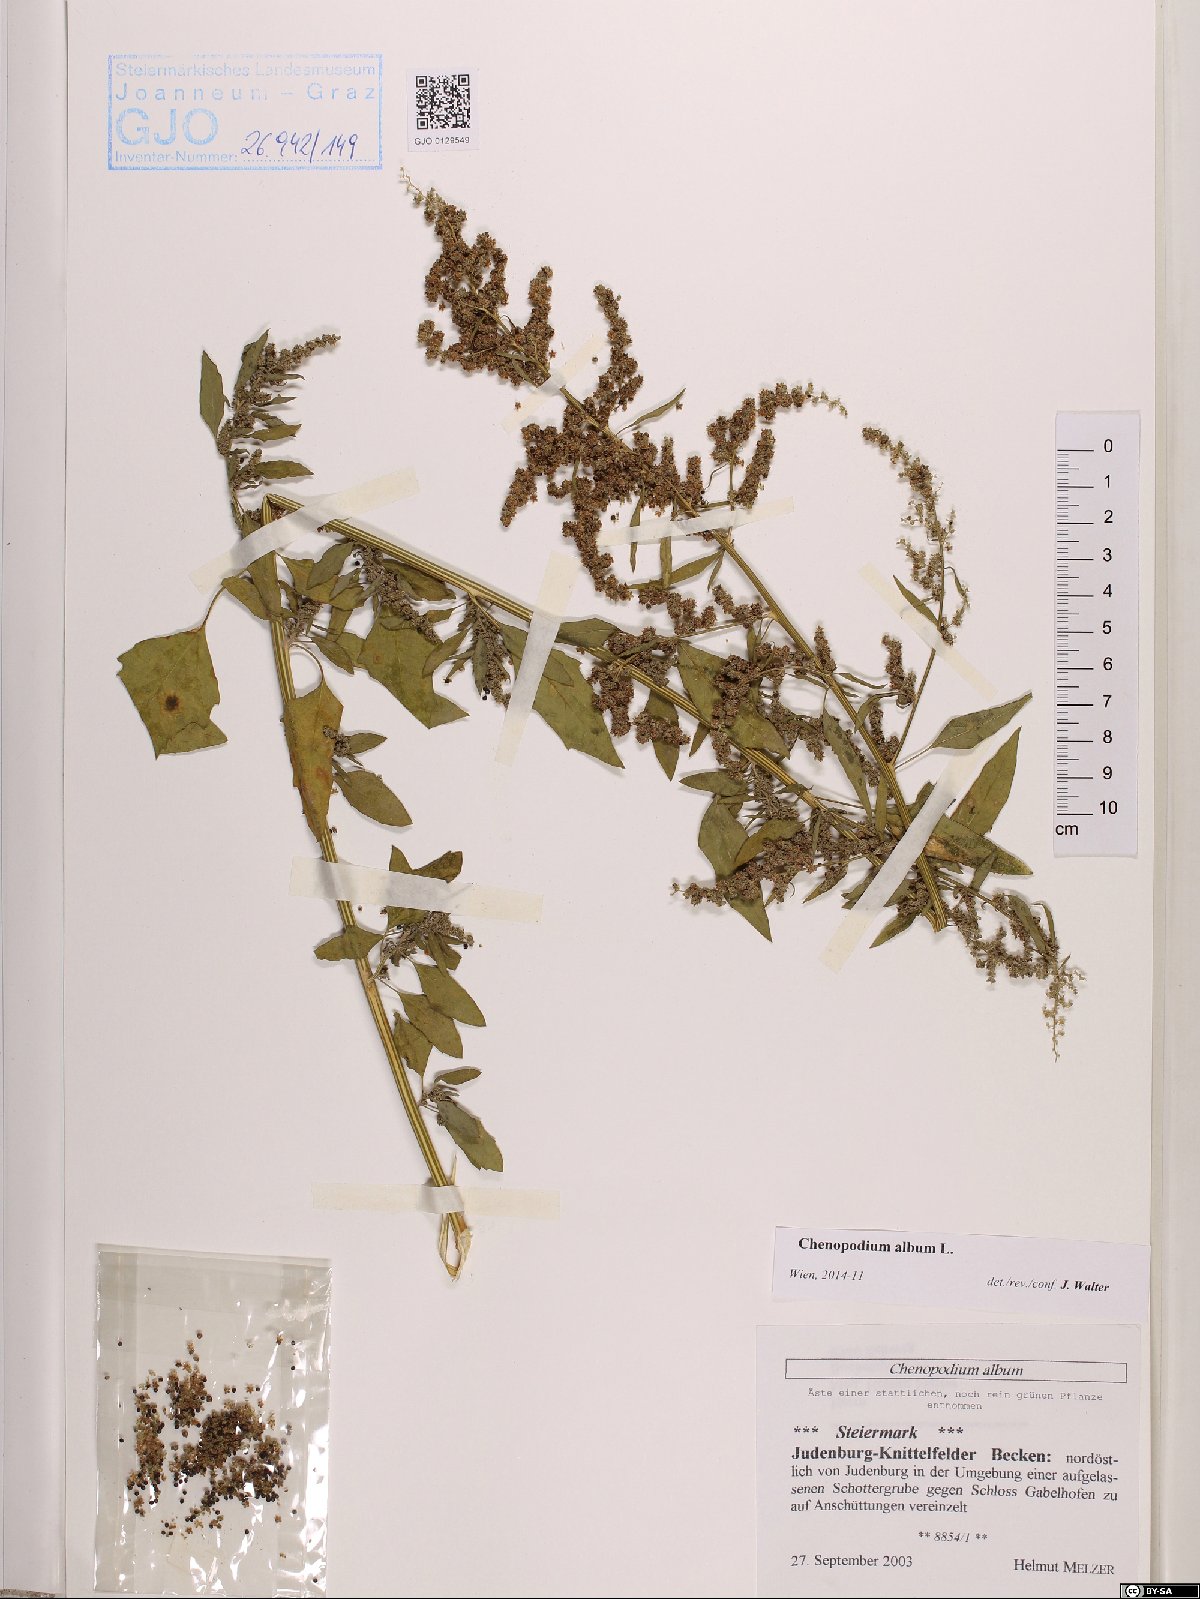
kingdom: Plantae
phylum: Tracheophyta
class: Magnoliopsida
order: Caryophyllales
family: Amaranthaceae
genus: Chenopodium
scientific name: Chenopodium album
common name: Fat-hen
